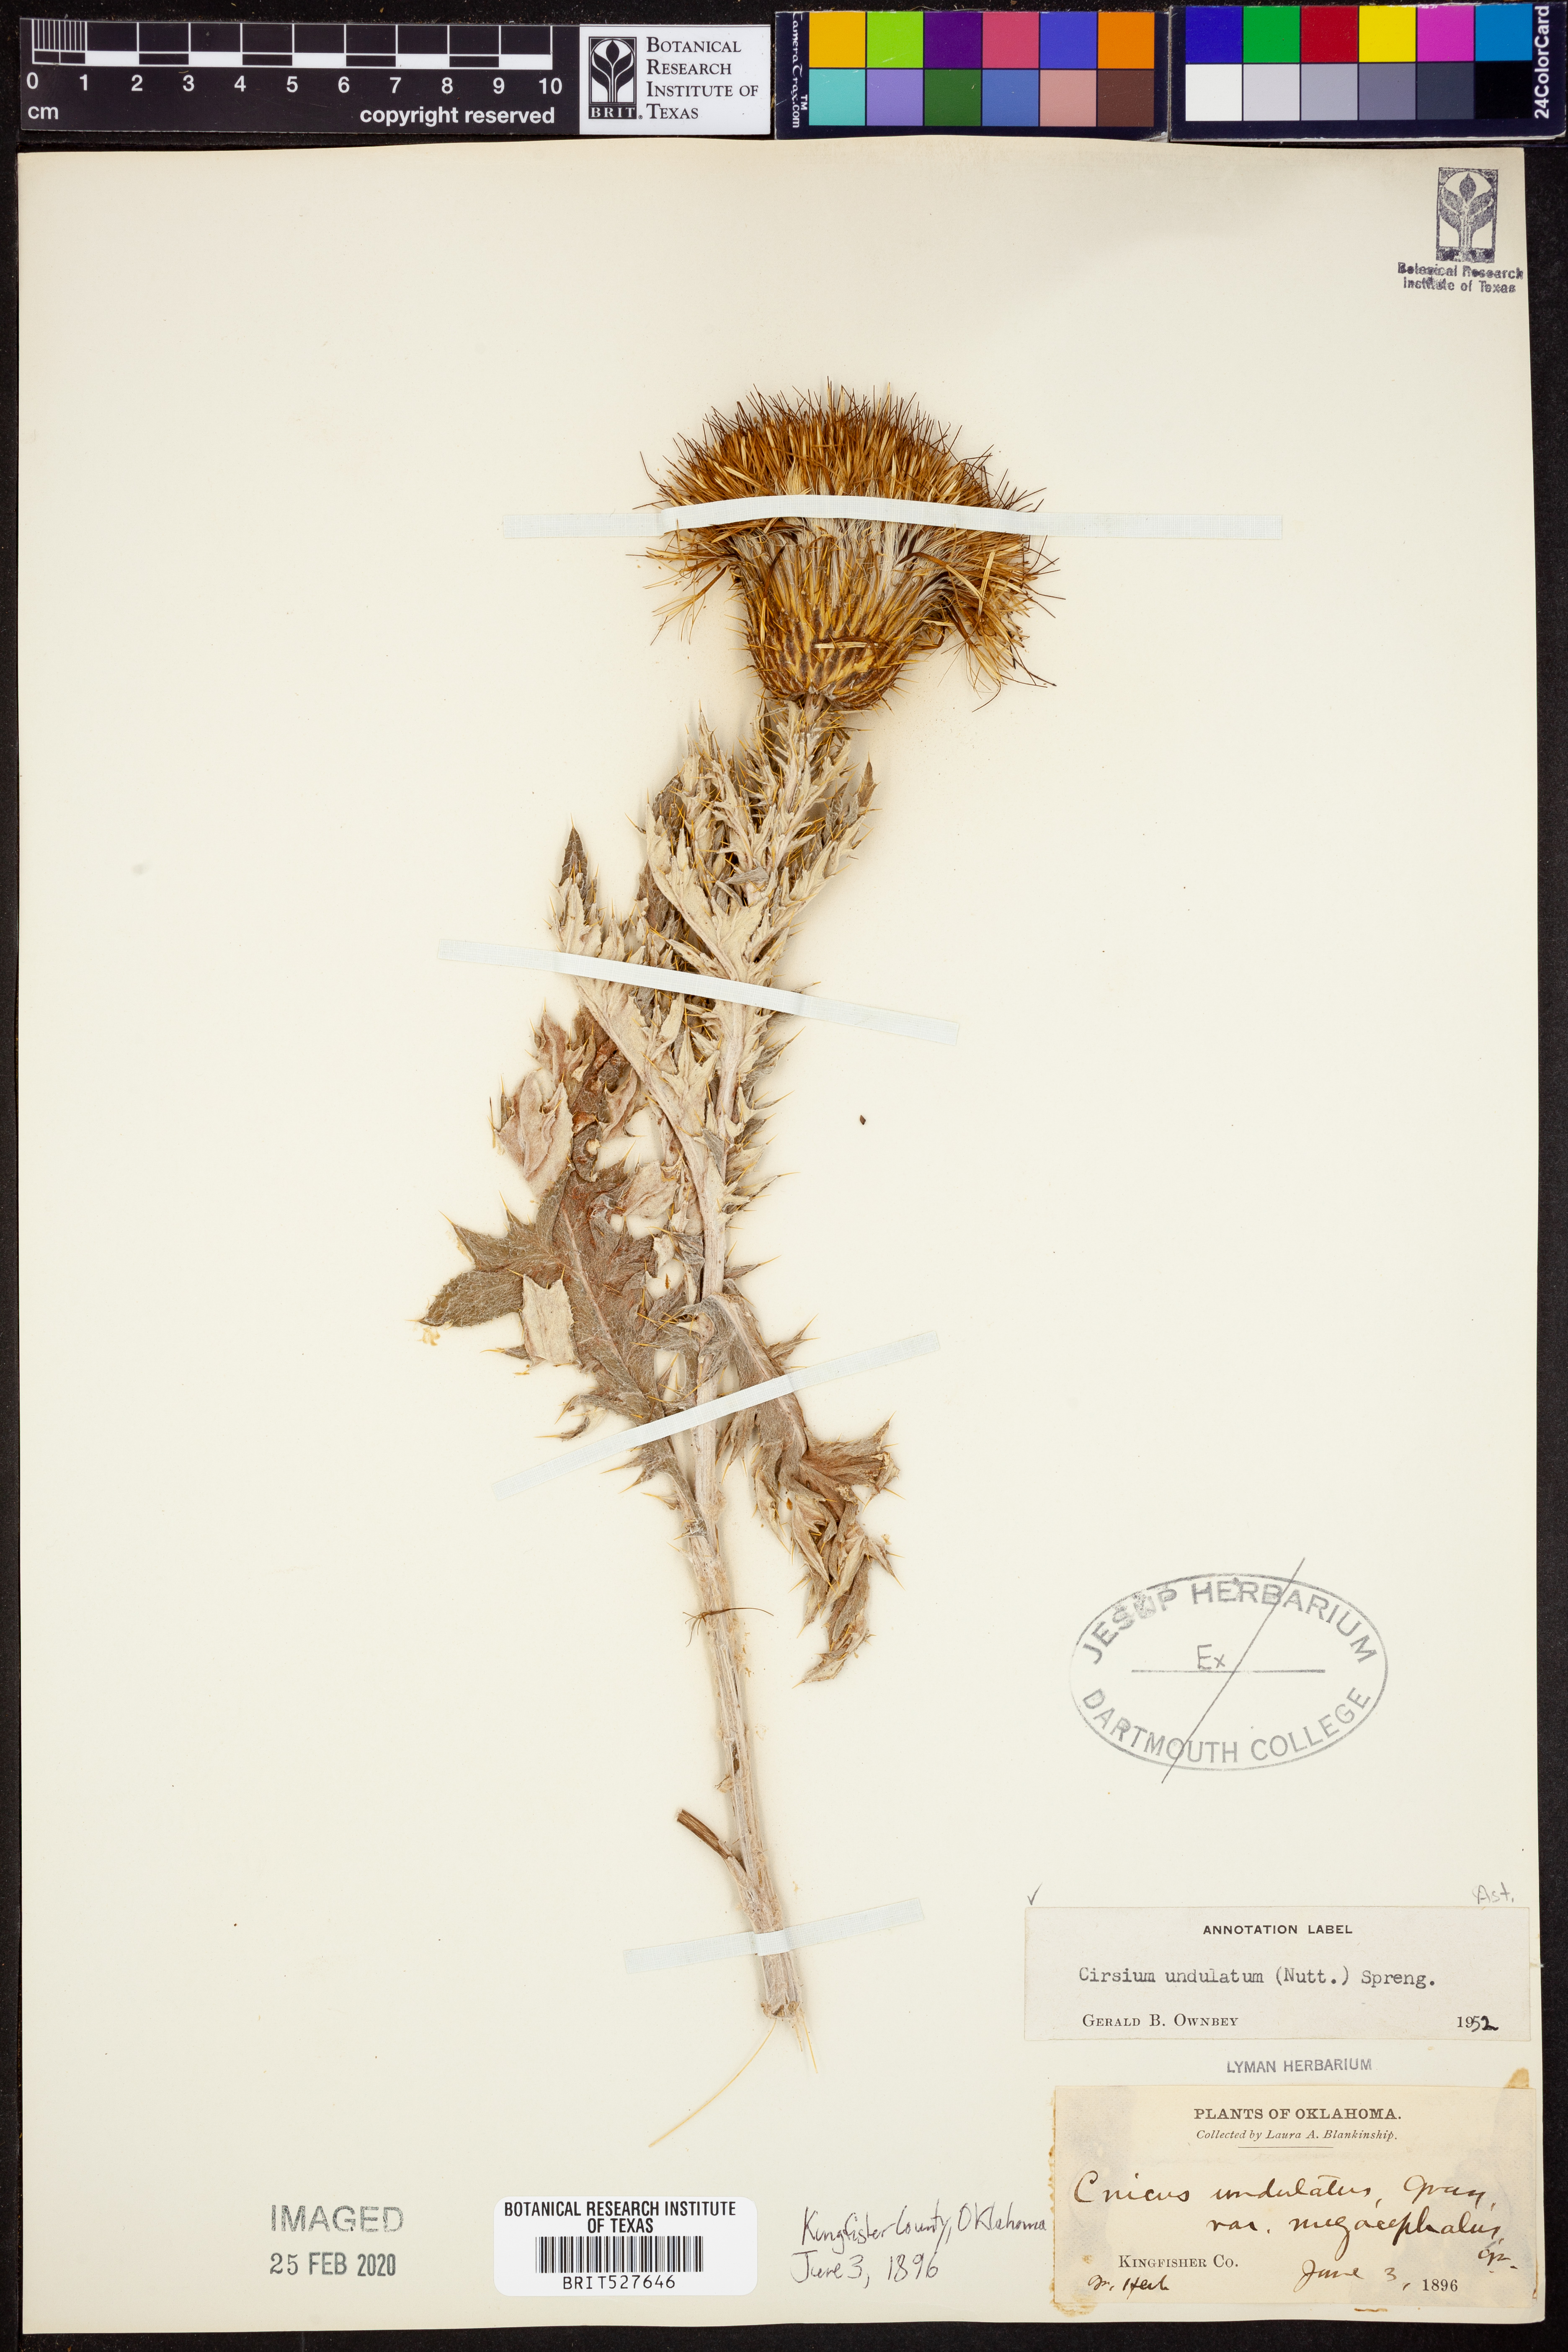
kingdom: Plantae
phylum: Tracheophyta
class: Magnoliopsida
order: Asterales
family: Asteraceae
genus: Cirsium
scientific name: Cirsium undulatum
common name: Pasture thistle
